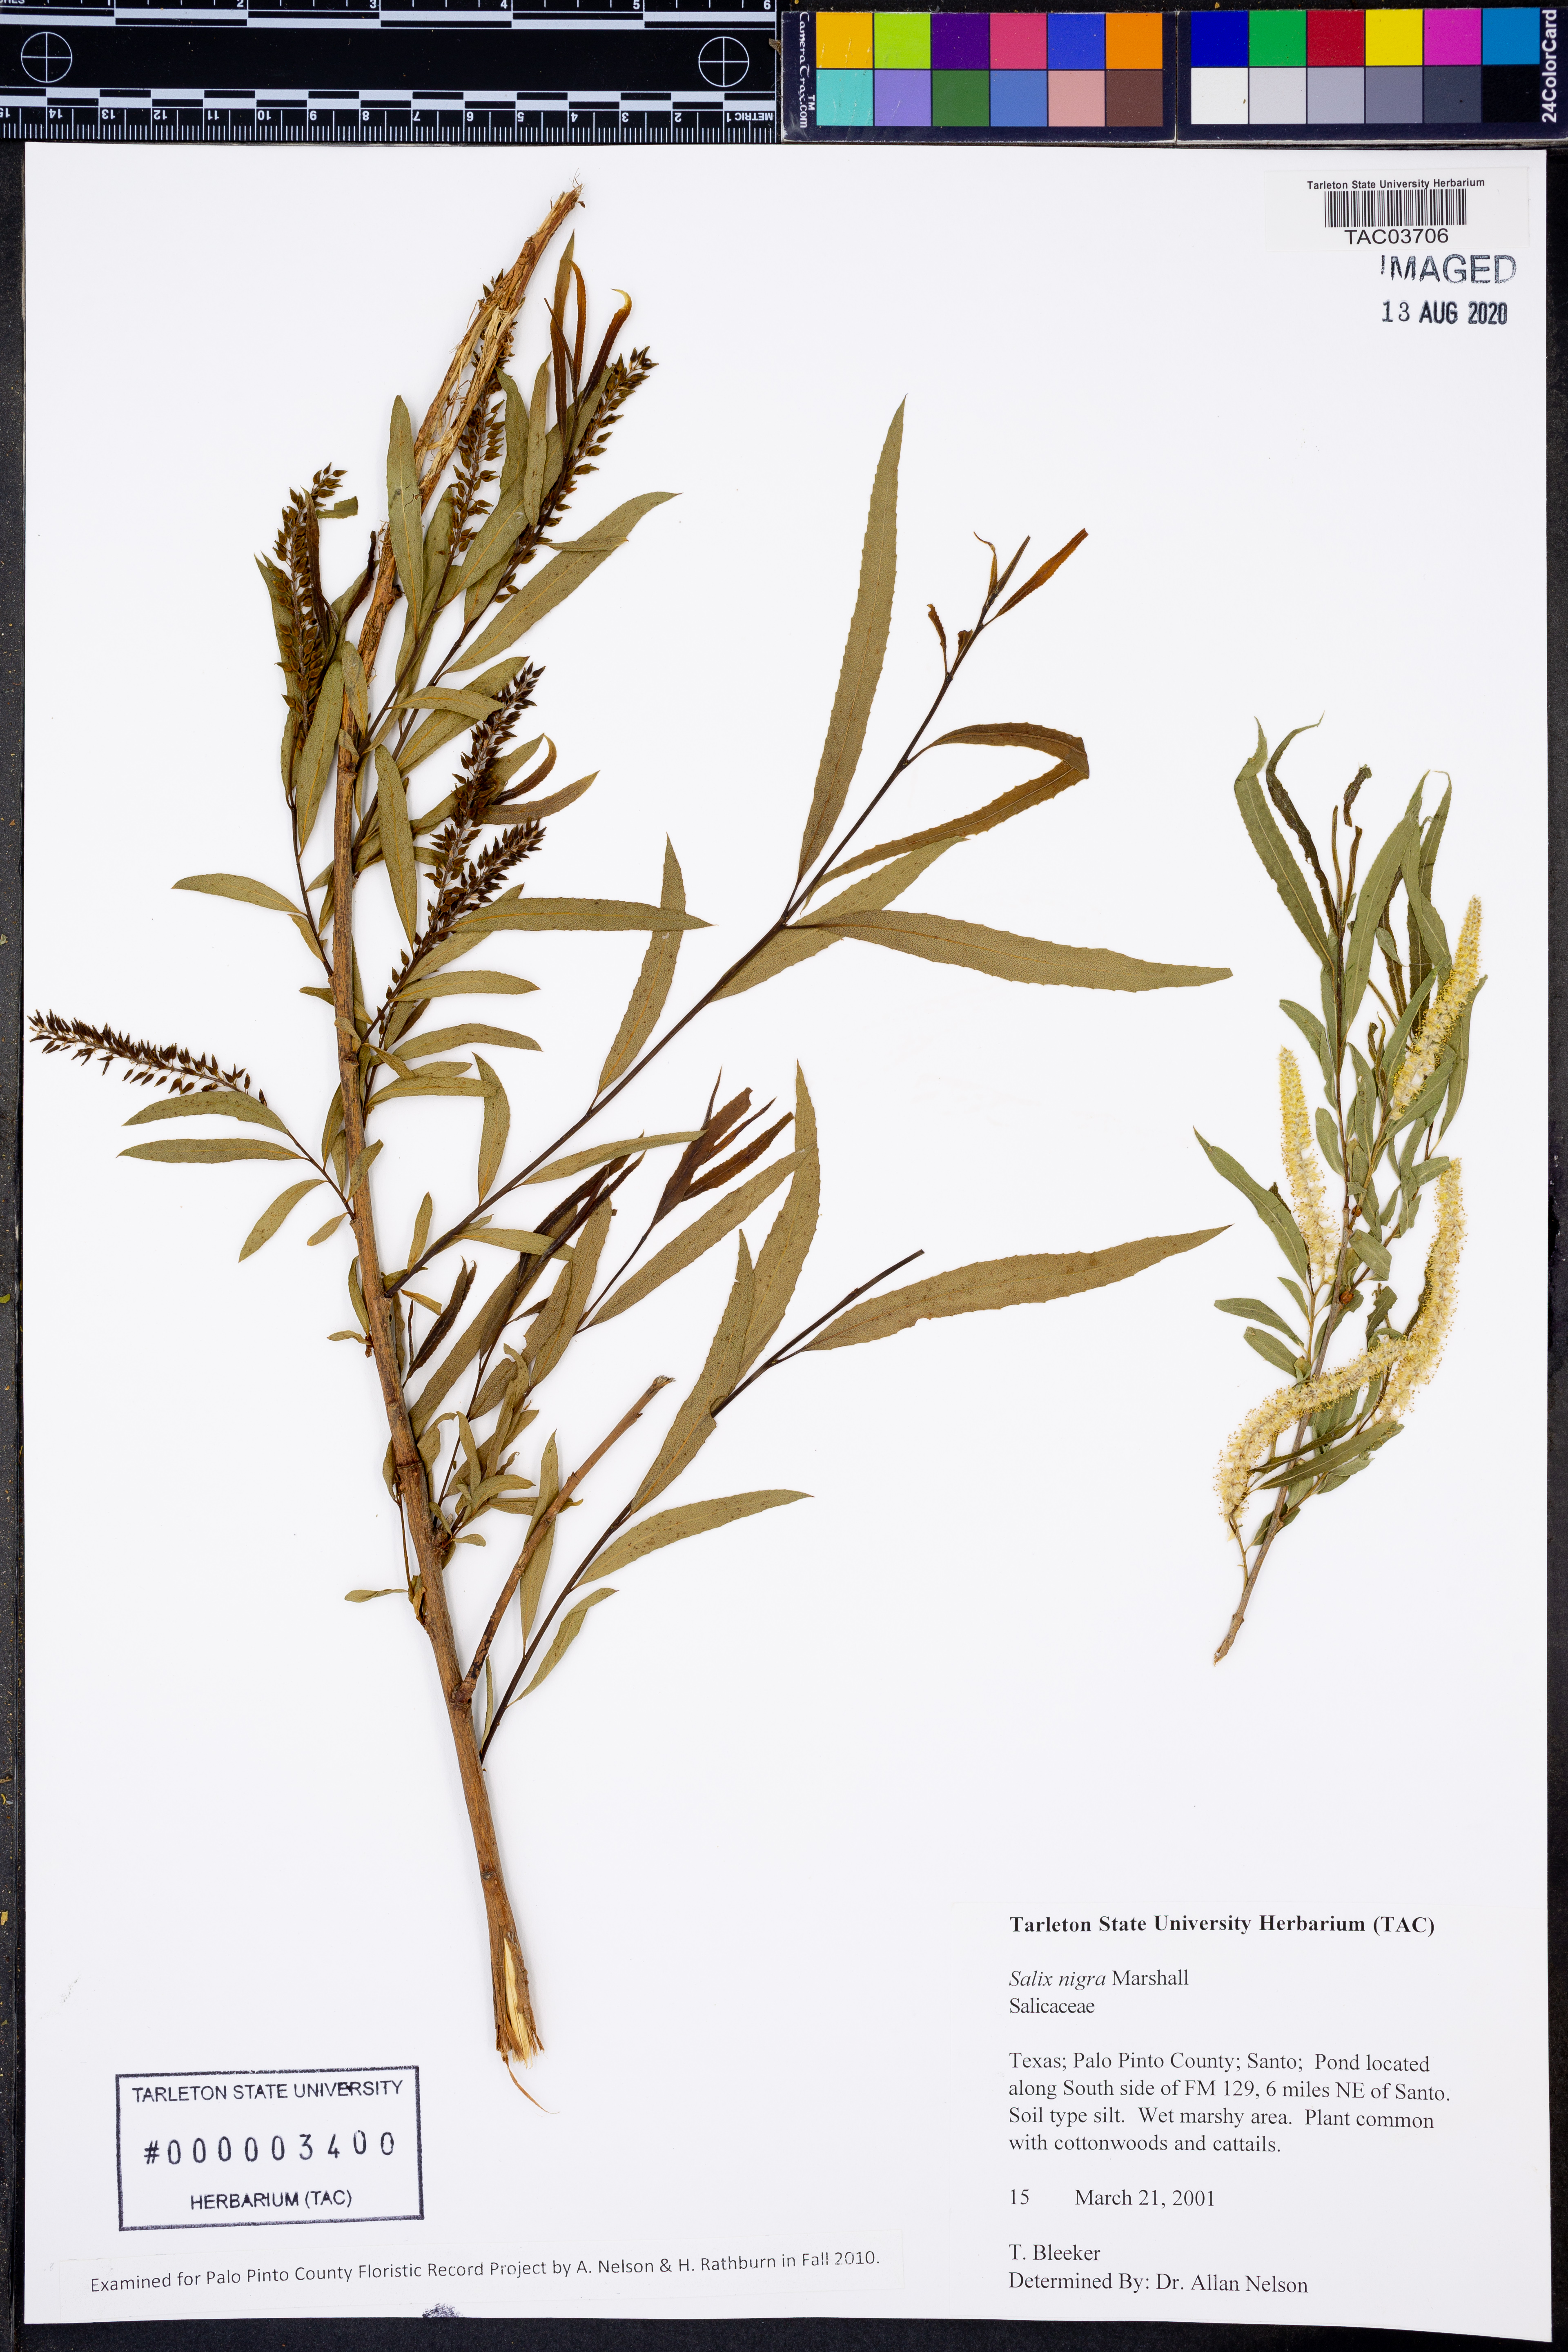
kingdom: Plantae
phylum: Tracheophyta
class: Magnoliopsida
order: Malpighiales
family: Salicaceae
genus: Salix
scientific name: Salix nigra
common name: Black willow
